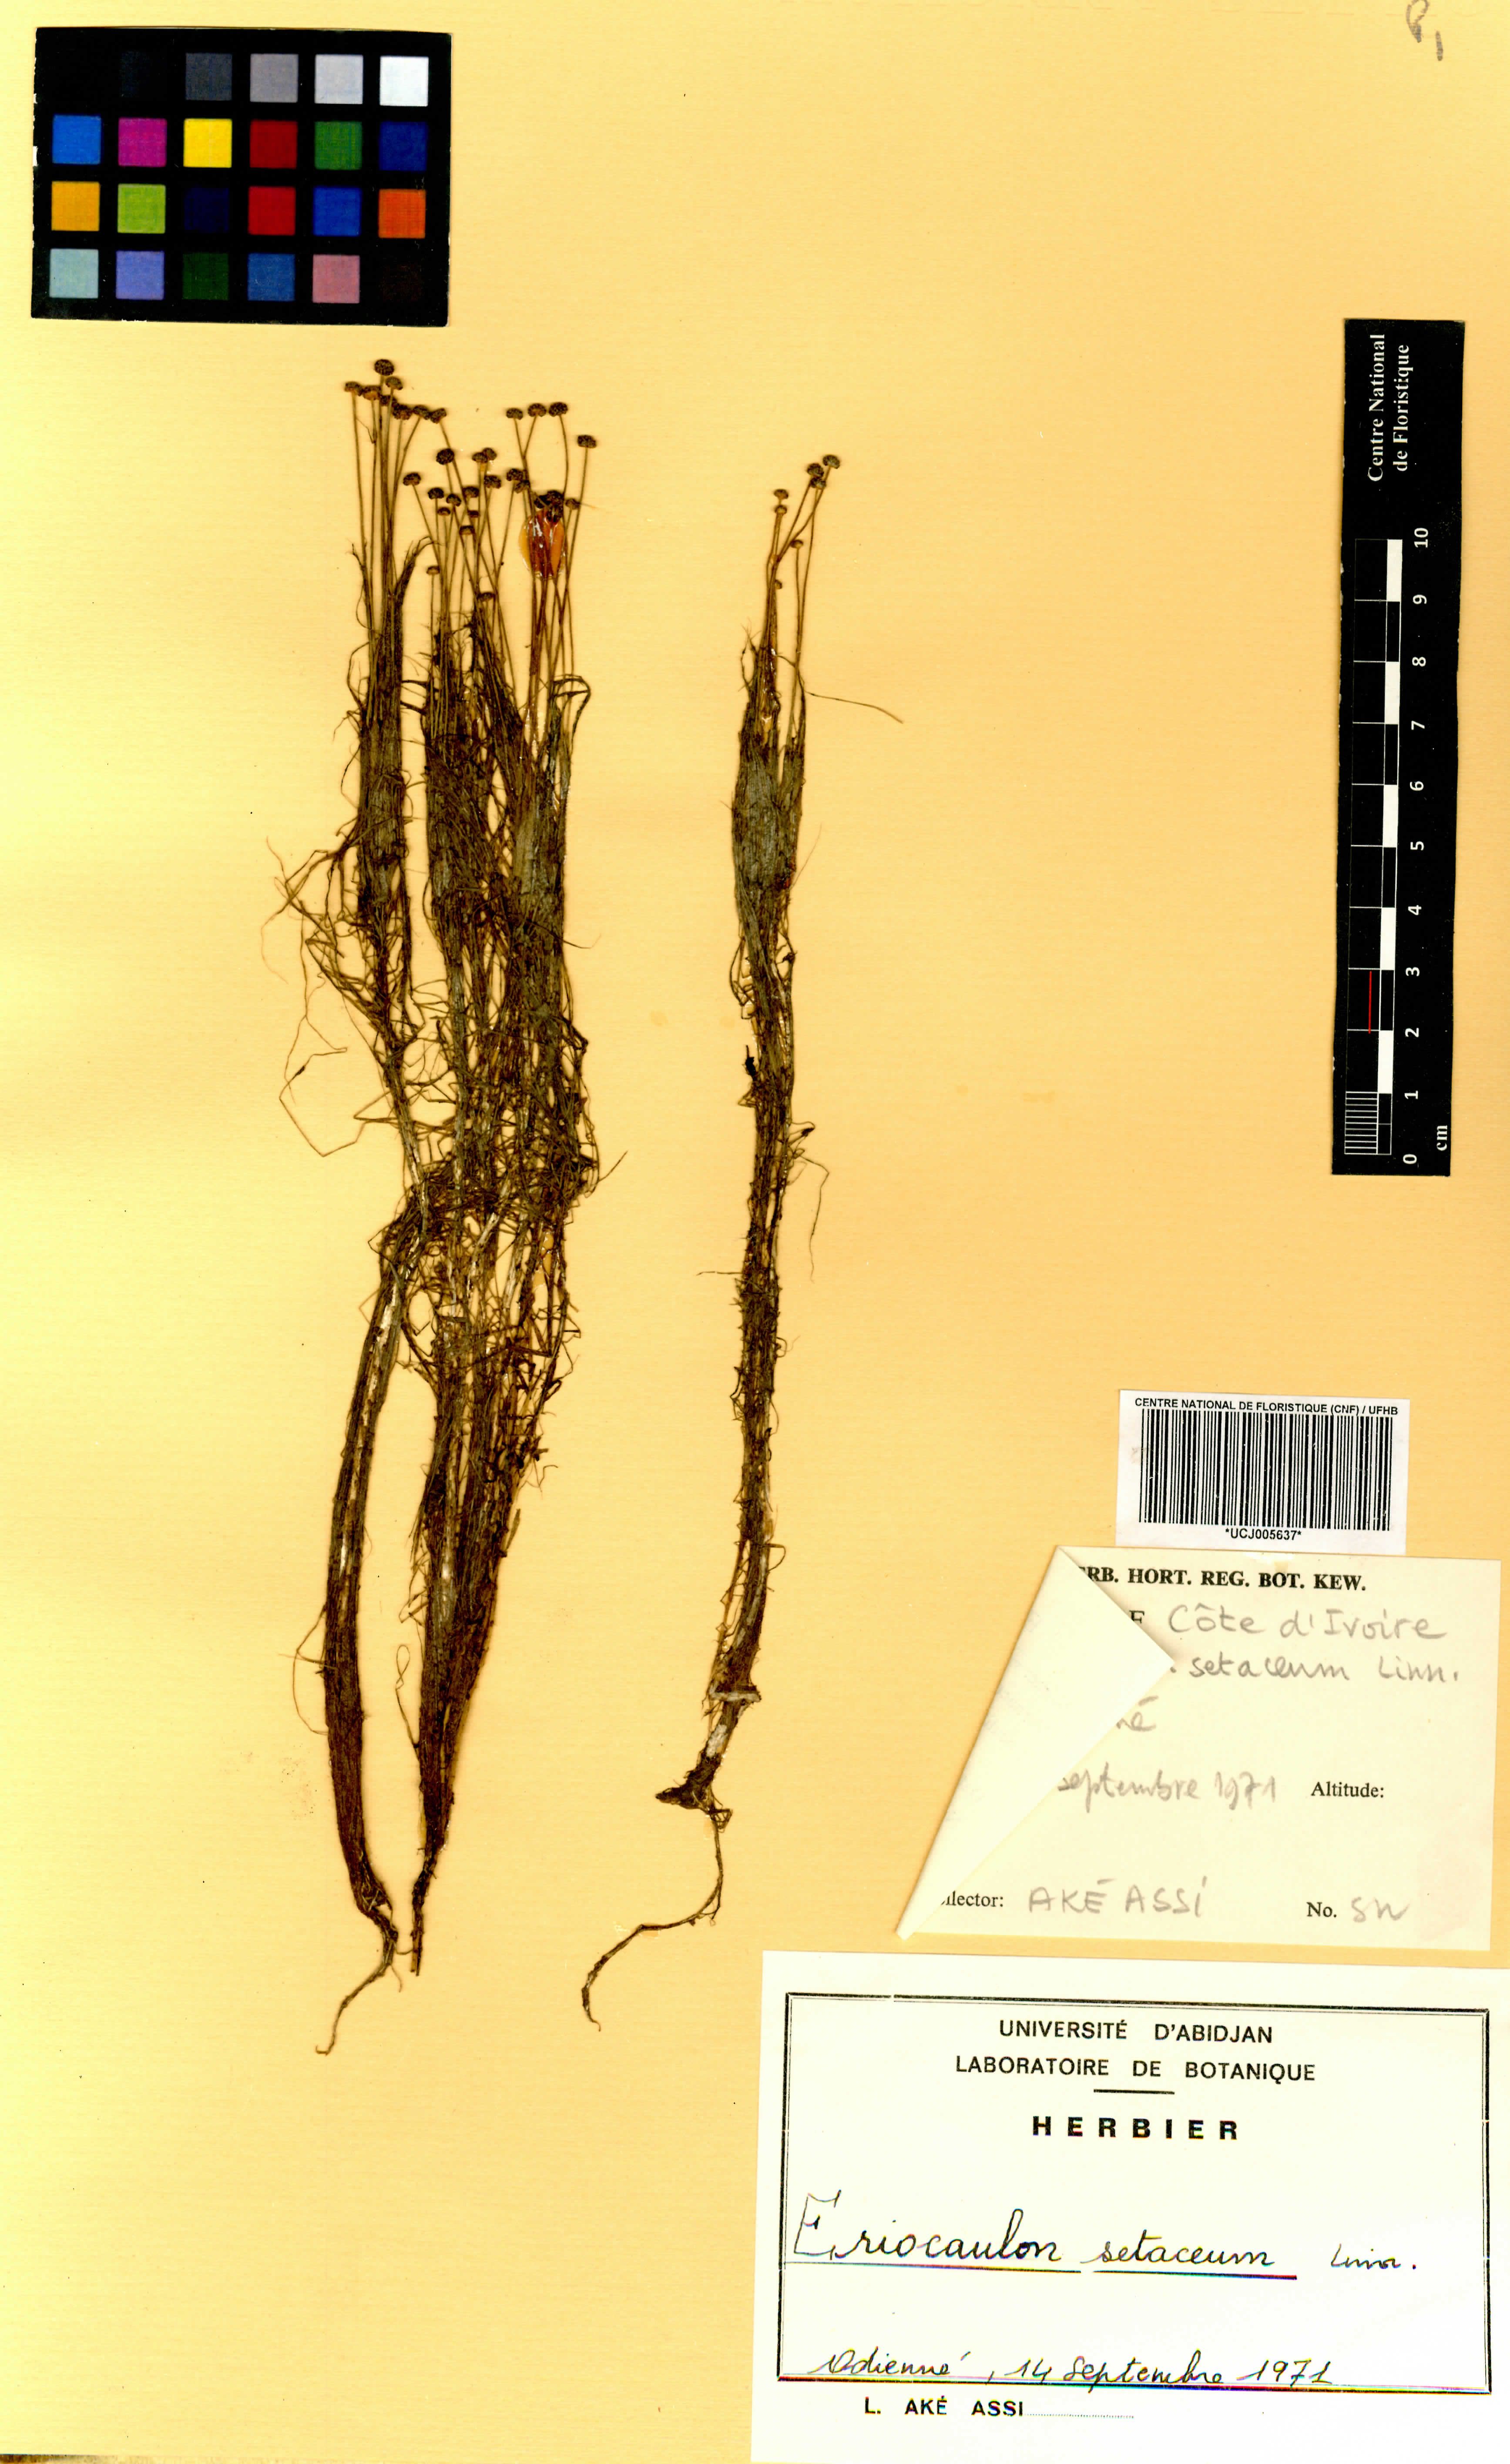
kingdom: Plantae
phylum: Tracheophyta
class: Liliopsida
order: Poales
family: Eriocaulaceae
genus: Eriocaulon
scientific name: Eriocaulon setaceum
